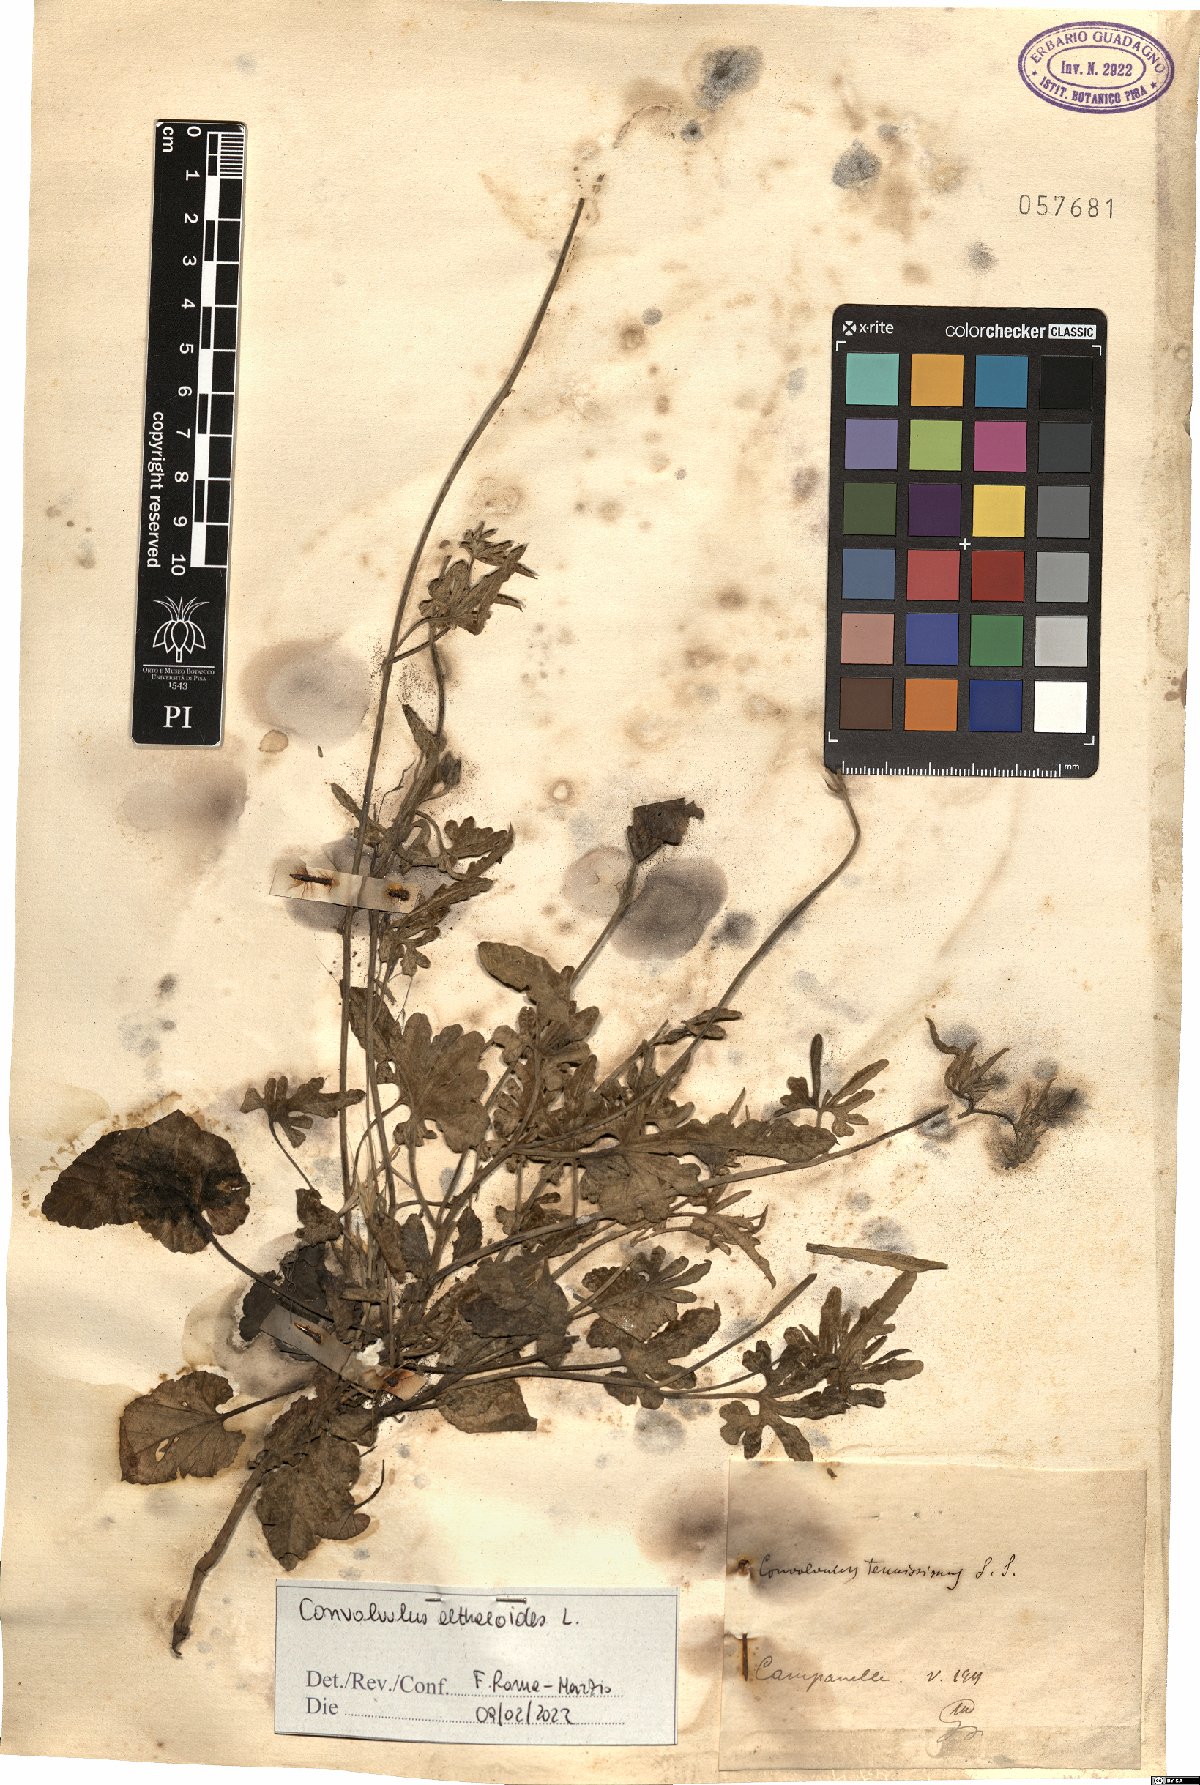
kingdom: Plantae
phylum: Tracheophyta
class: Magnoliopsida
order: Solanales
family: Convolvulaceae
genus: Convolvulus
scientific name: Convolvulus althaeoides
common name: Mallow bindweed
